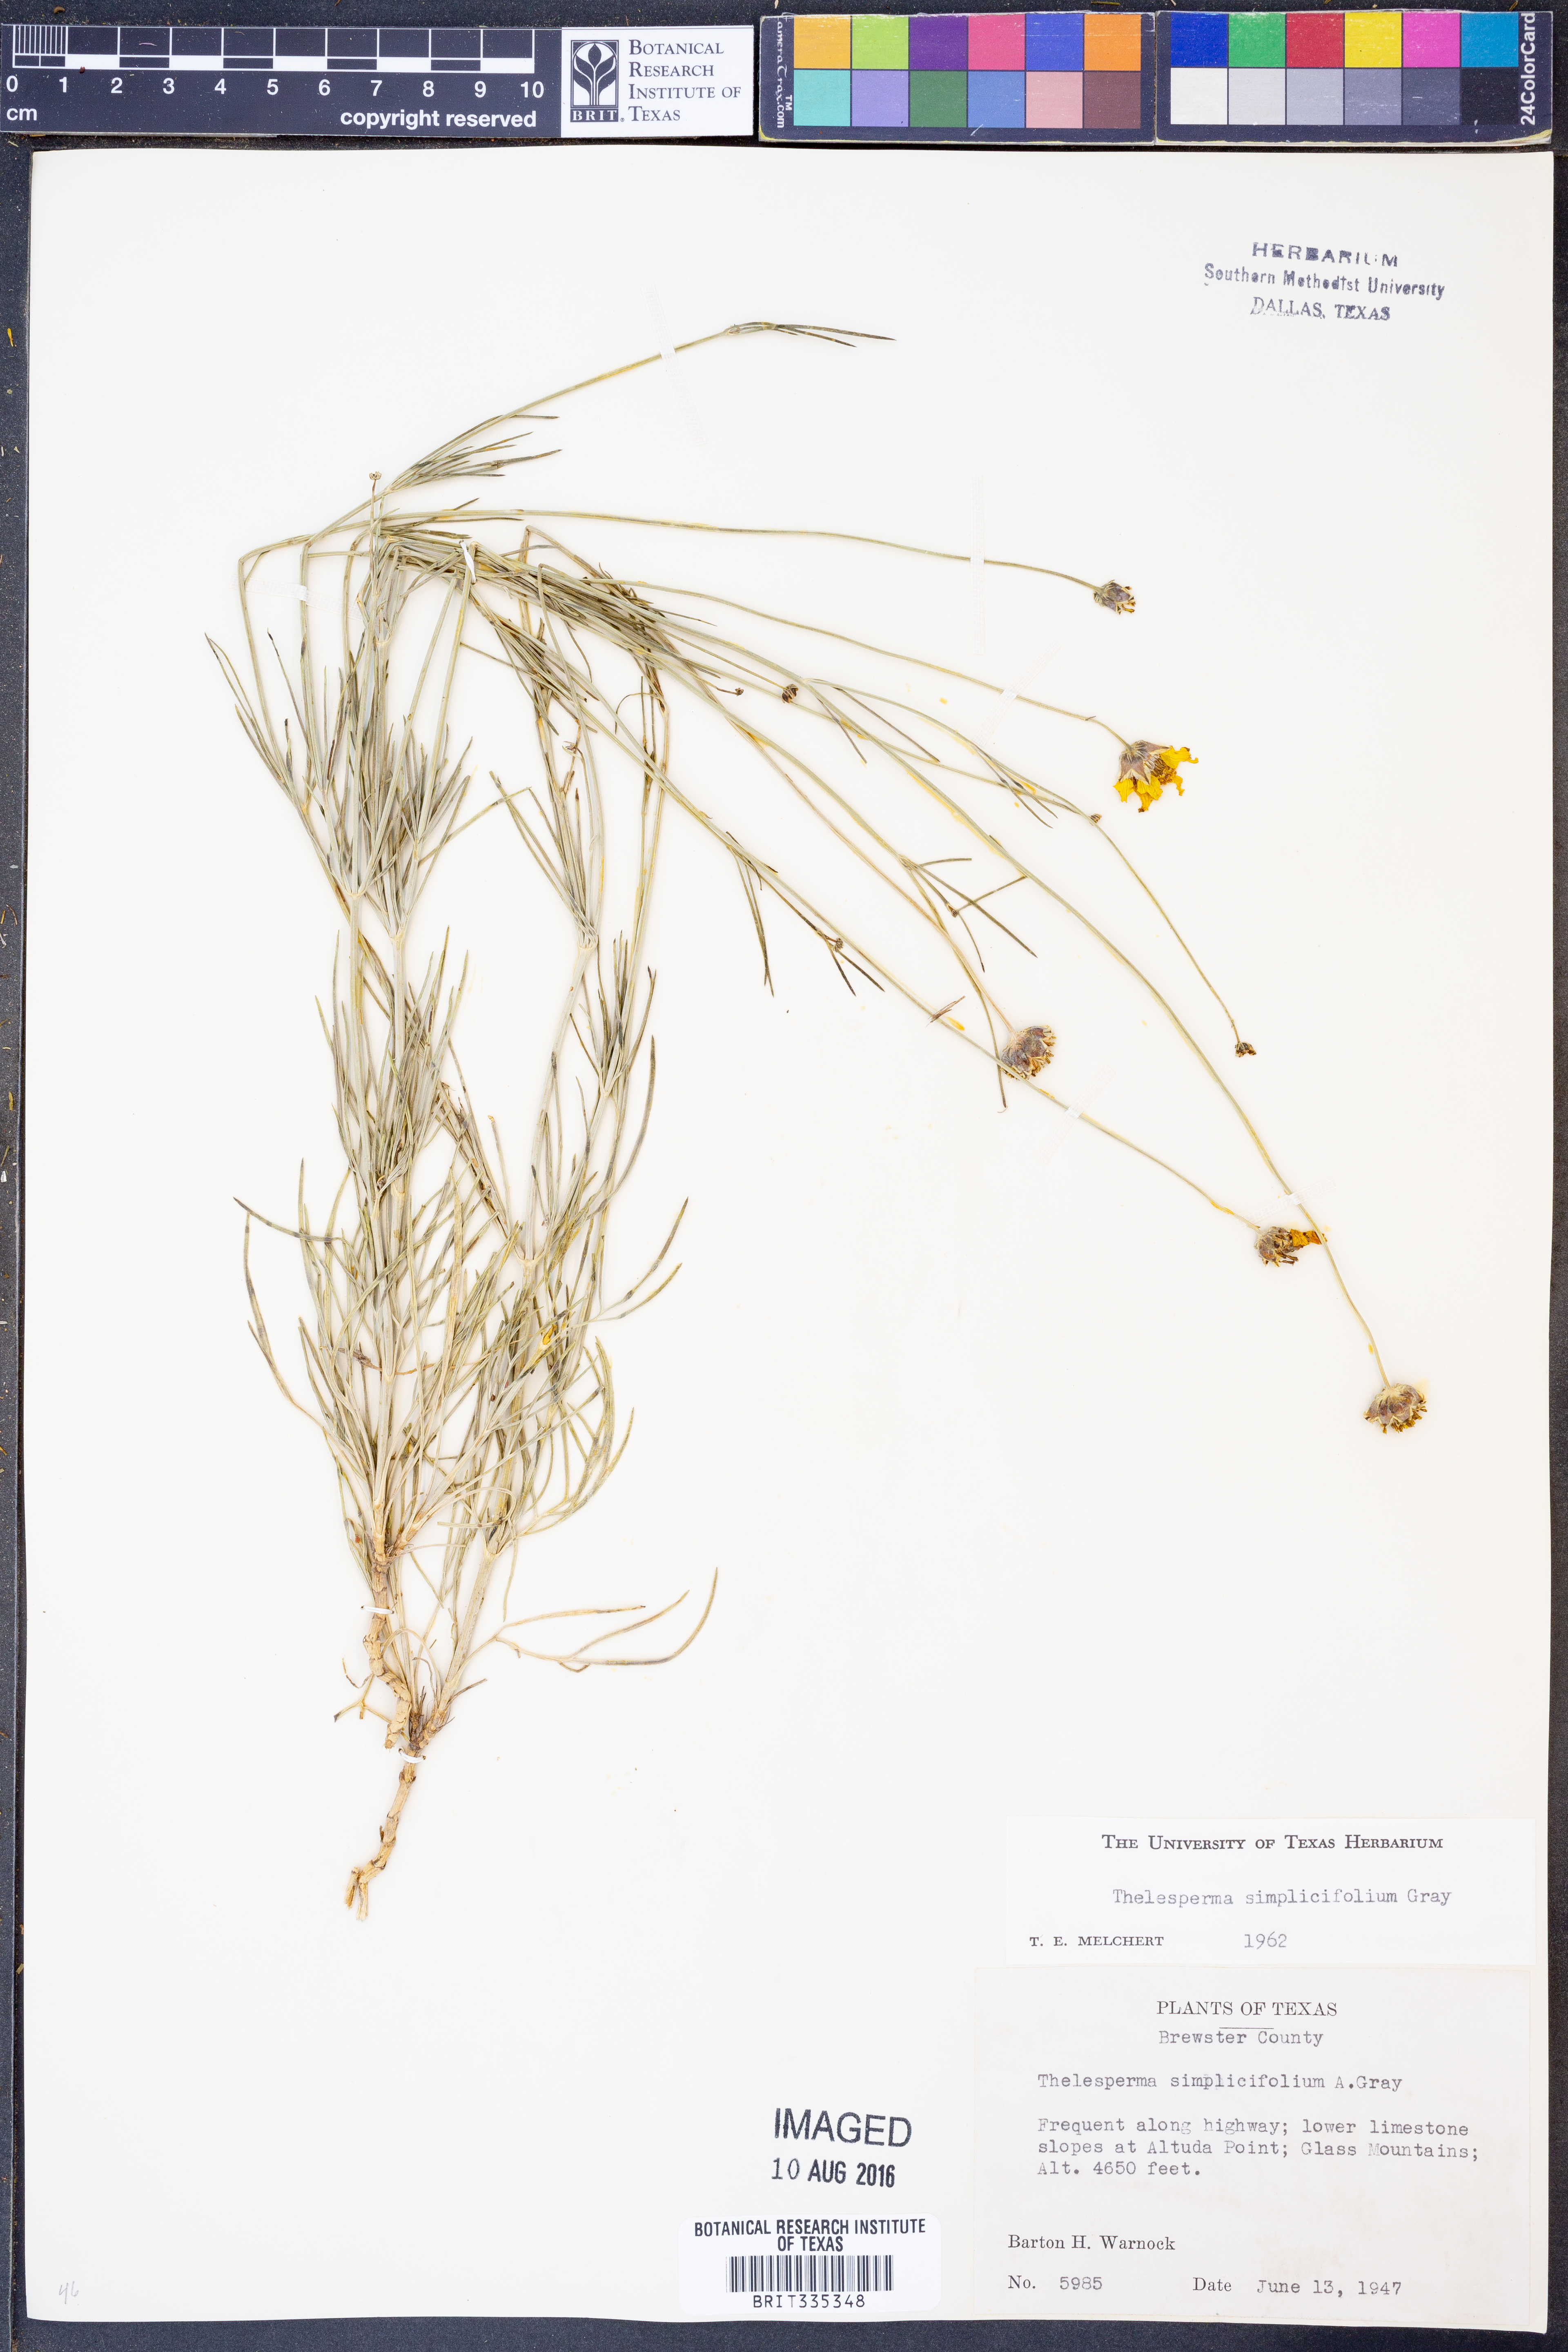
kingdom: Plantae
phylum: Tracheophyta
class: Magnoliopsida
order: Asterales
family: Asteraceae
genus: Thelesperma
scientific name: Thelesperma simplicifolium
